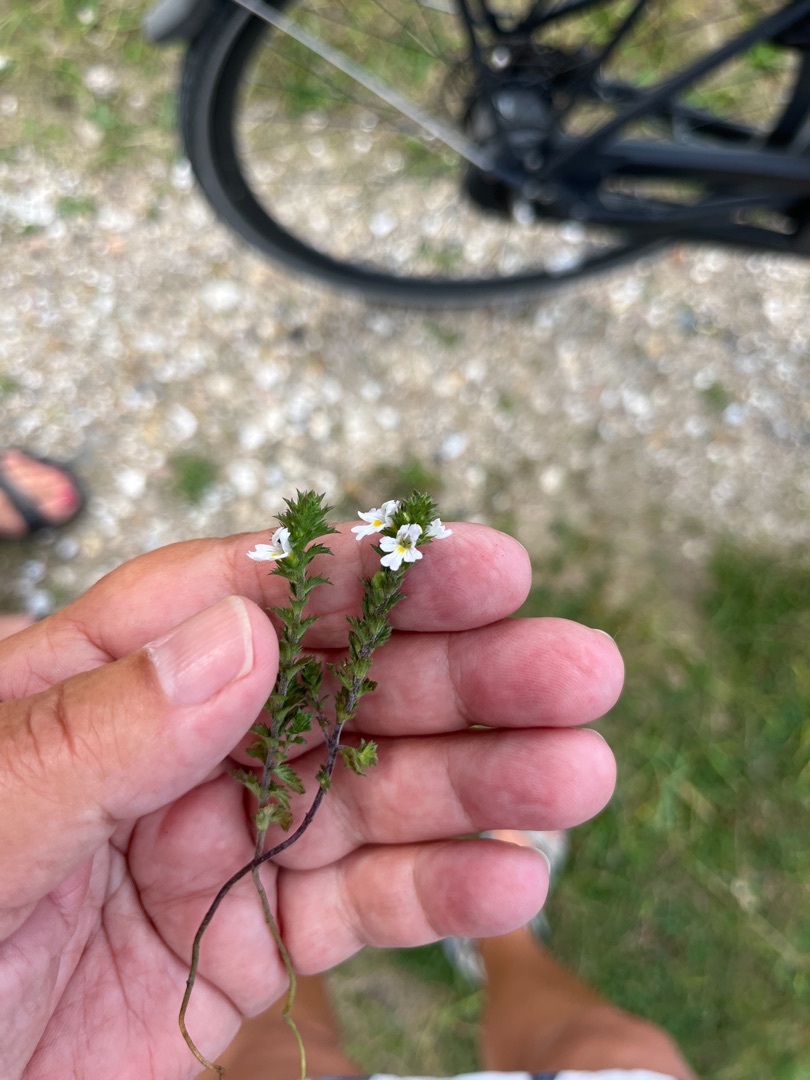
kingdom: Plantae
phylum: Tracheophyta
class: Magnoliopsida
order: Lamiales
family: Orobanchaceae
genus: Euphrasia
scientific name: Euphrasia stricta
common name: Spids øjentrøst
